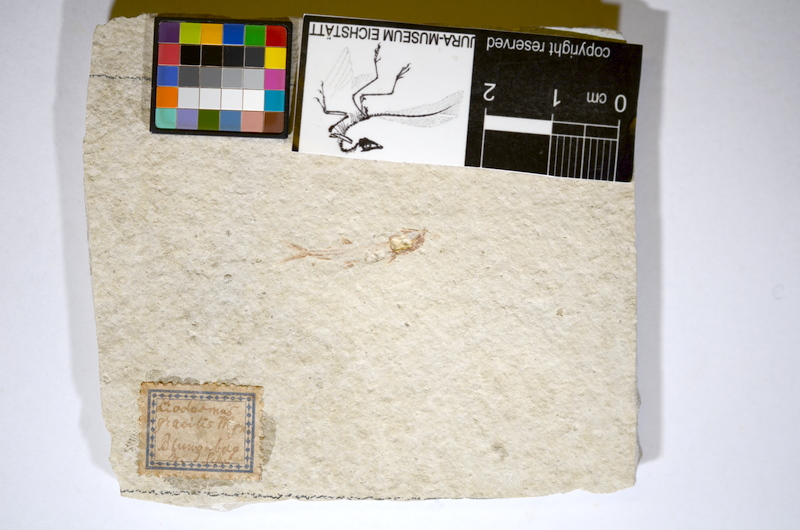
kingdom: Animalia
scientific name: Animalia
